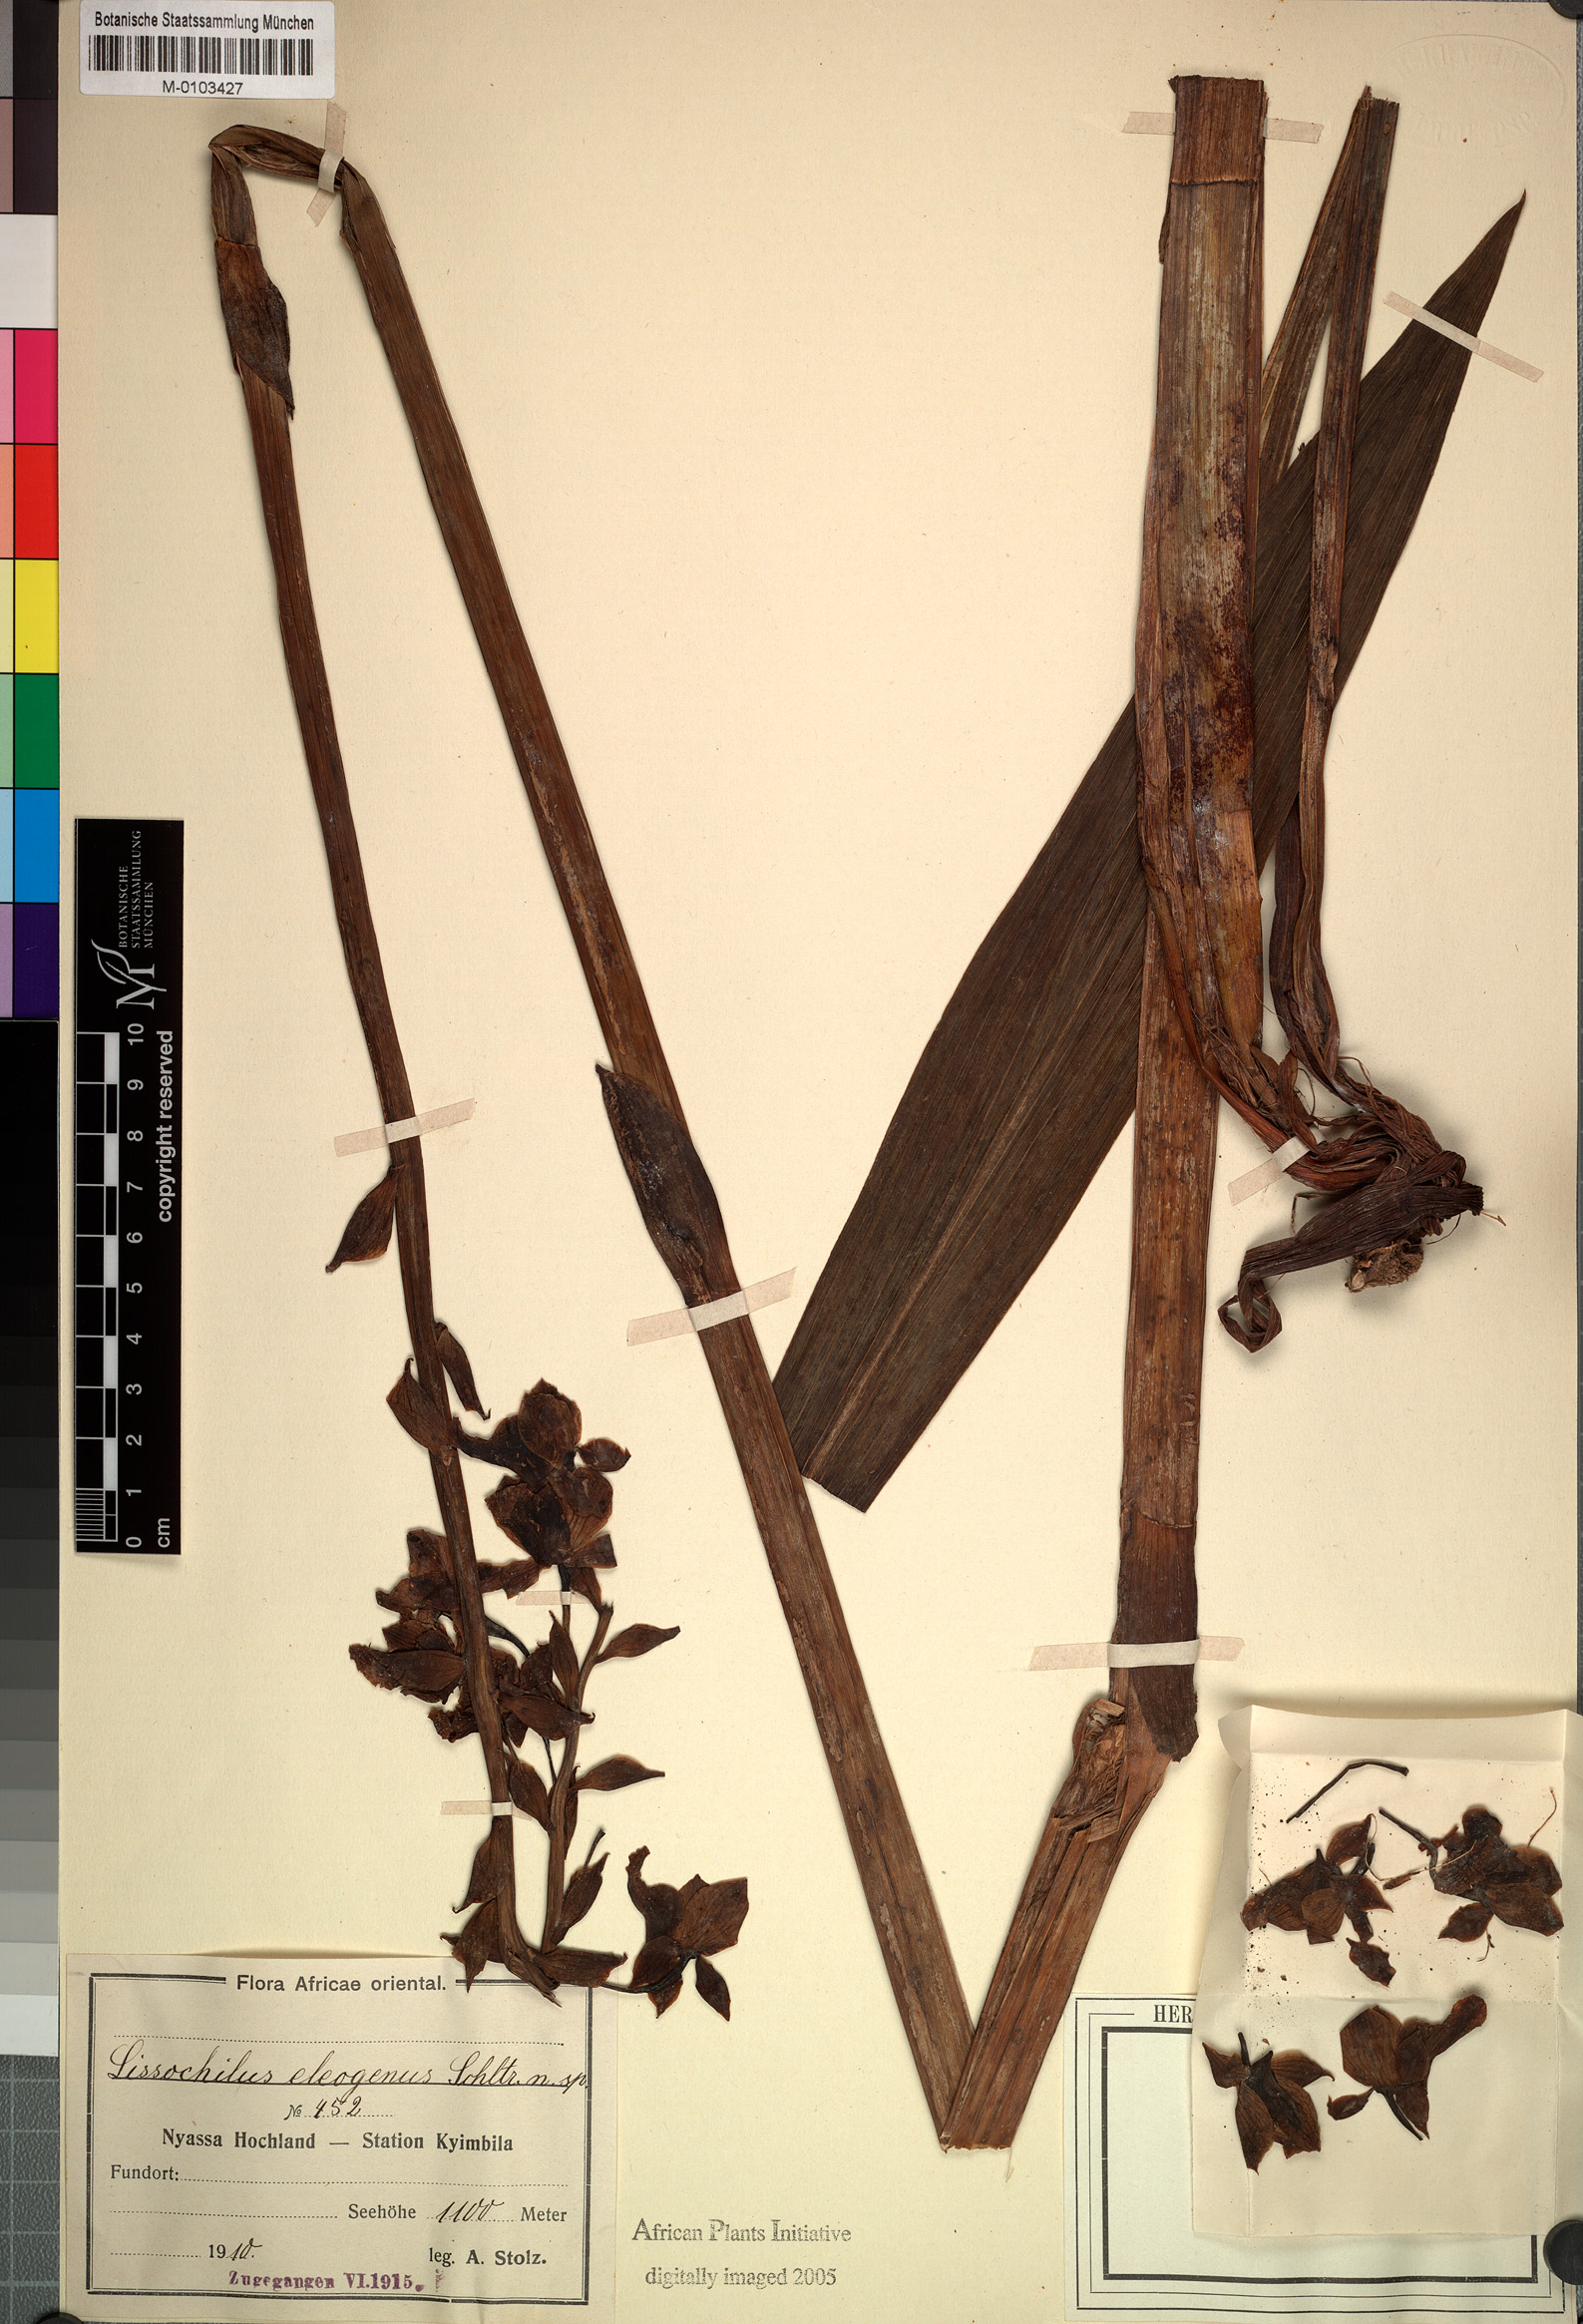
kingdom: Plantae
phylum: Tracheophyta
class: Liliopsida
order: Asparagales
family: Orchidaceae
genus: Eulophia
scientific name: Eulophia horsfallii
